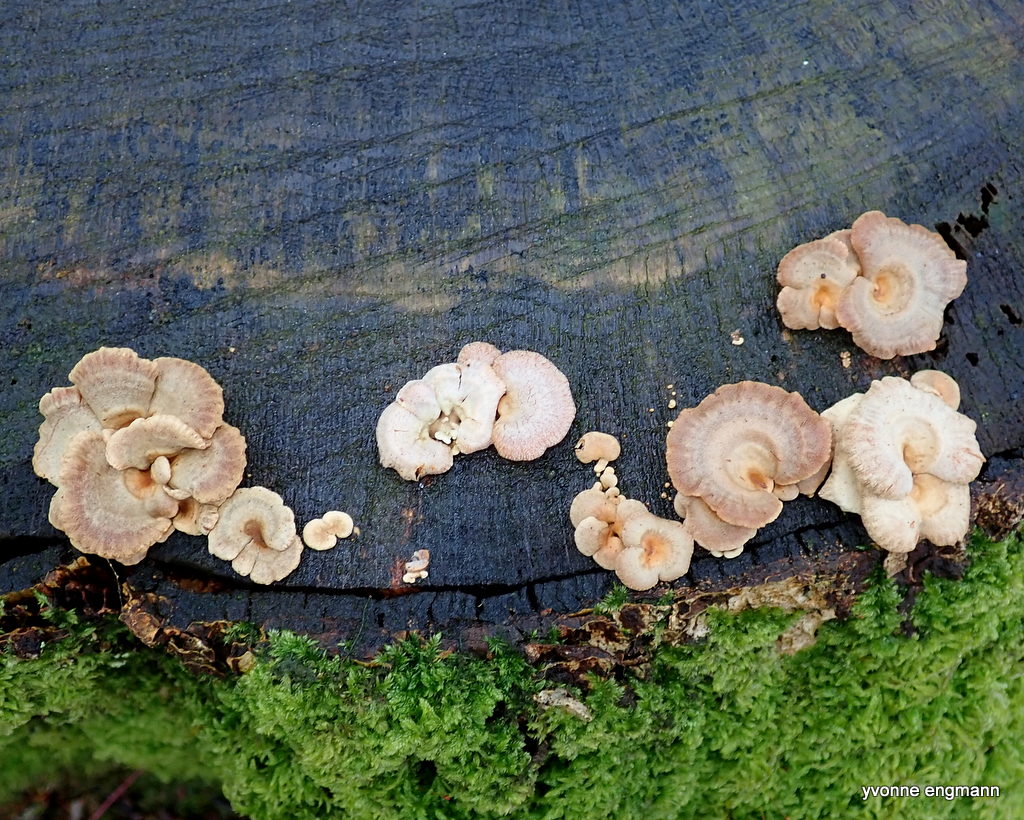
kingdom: Fungi
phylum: Basidiomycota
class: Agaricomycetes
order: Agaricales
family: Mycenaceae
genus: Panellus
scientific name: Panellus stipticus
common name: kliddet epaulethat
